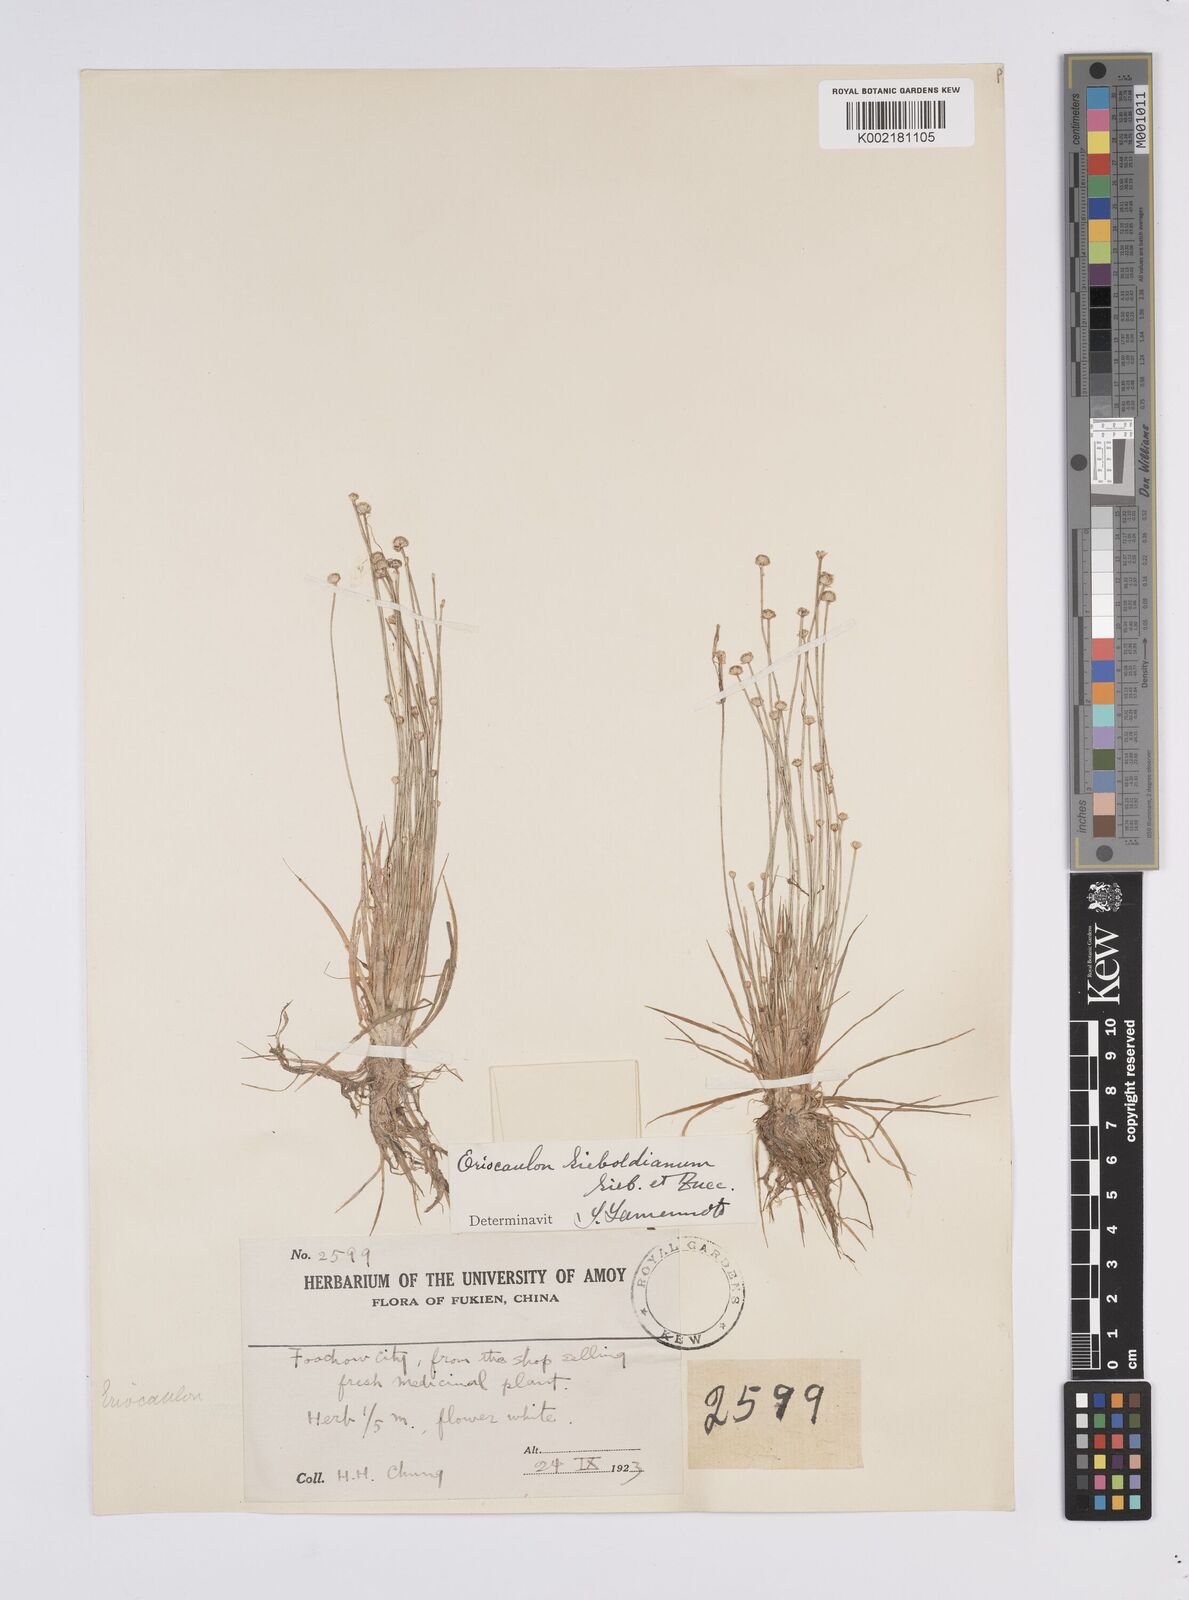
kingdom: Plantae
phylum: Tracheophyta
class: Liliopsida
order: Poales
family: Eriocaulaceae
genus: Eriocaulon
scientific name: Eriocaulon cinereum
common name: Ashy pipewort
